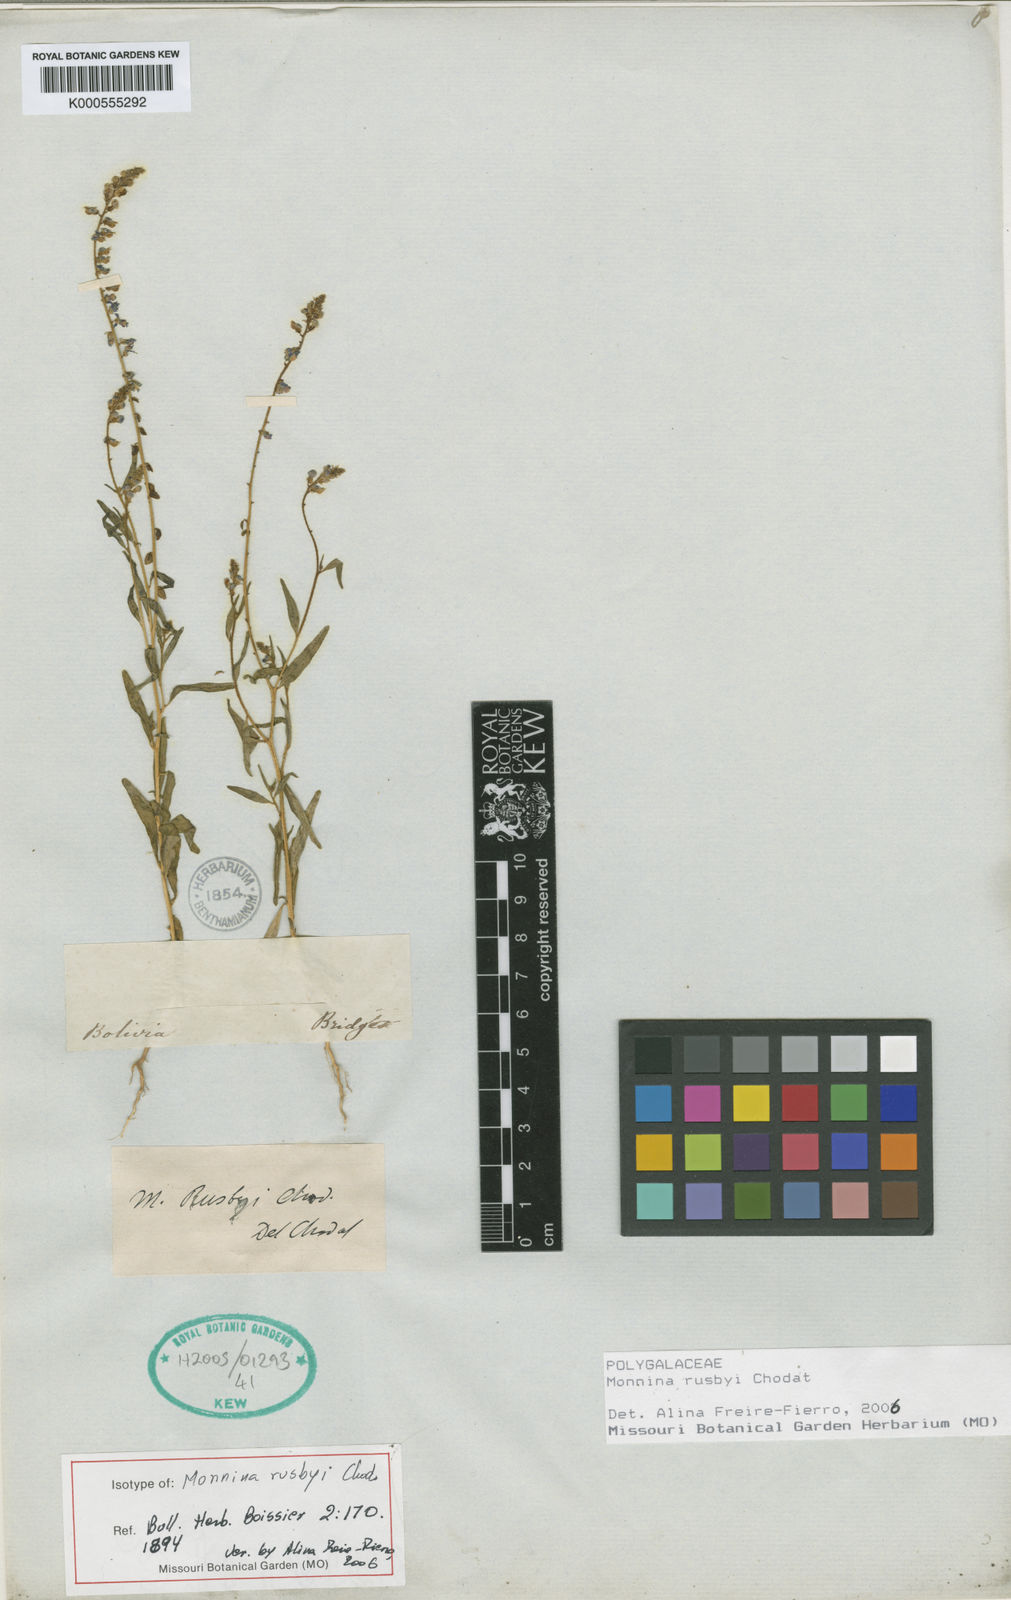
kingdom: Plantae
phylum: Tracheophyta
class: Magnoliopsida
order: Fabales
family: Polygalaceae
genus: Monnina
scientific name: Monnina rusbyi
